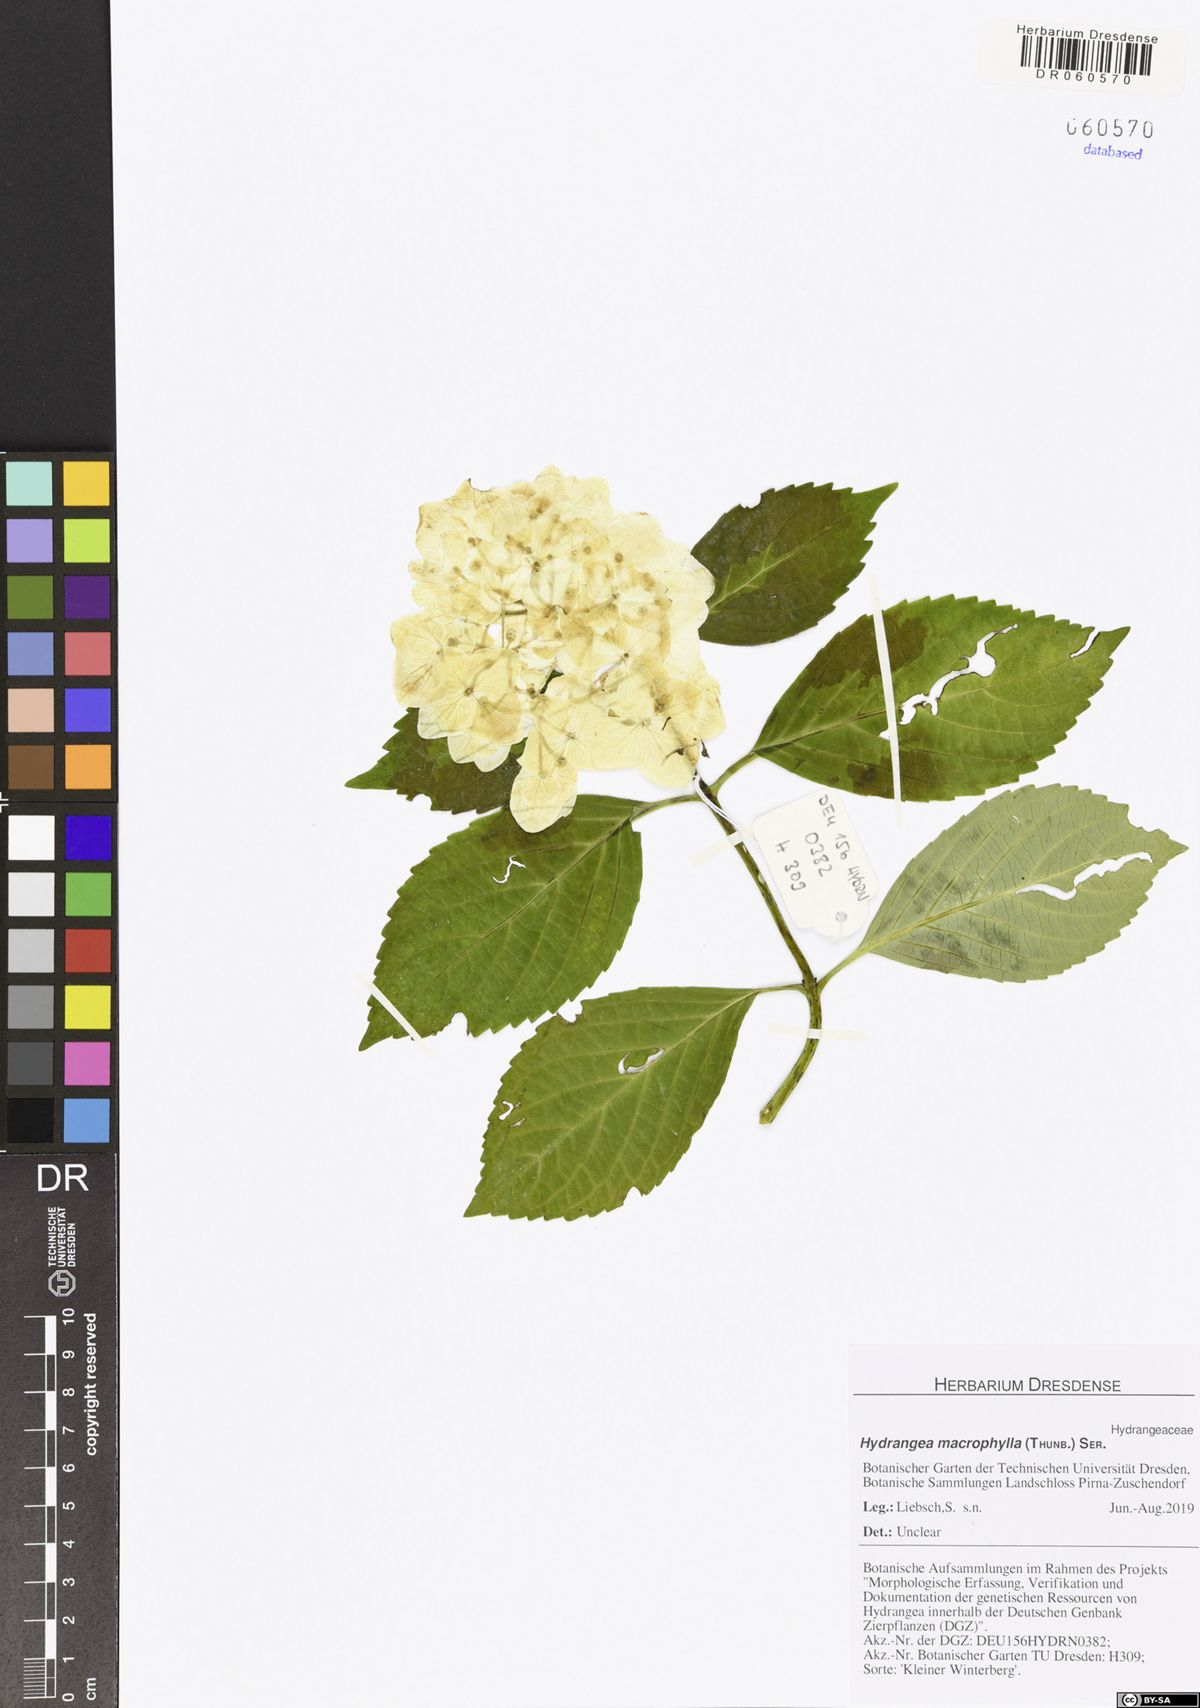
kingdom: Plantae
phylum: Tracheophyta
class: Magnoliopsida
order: Cornales
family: Hydrangeaceae
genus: Hydrangea
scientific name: Hydrangea macrophylla
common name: Hydrangea
